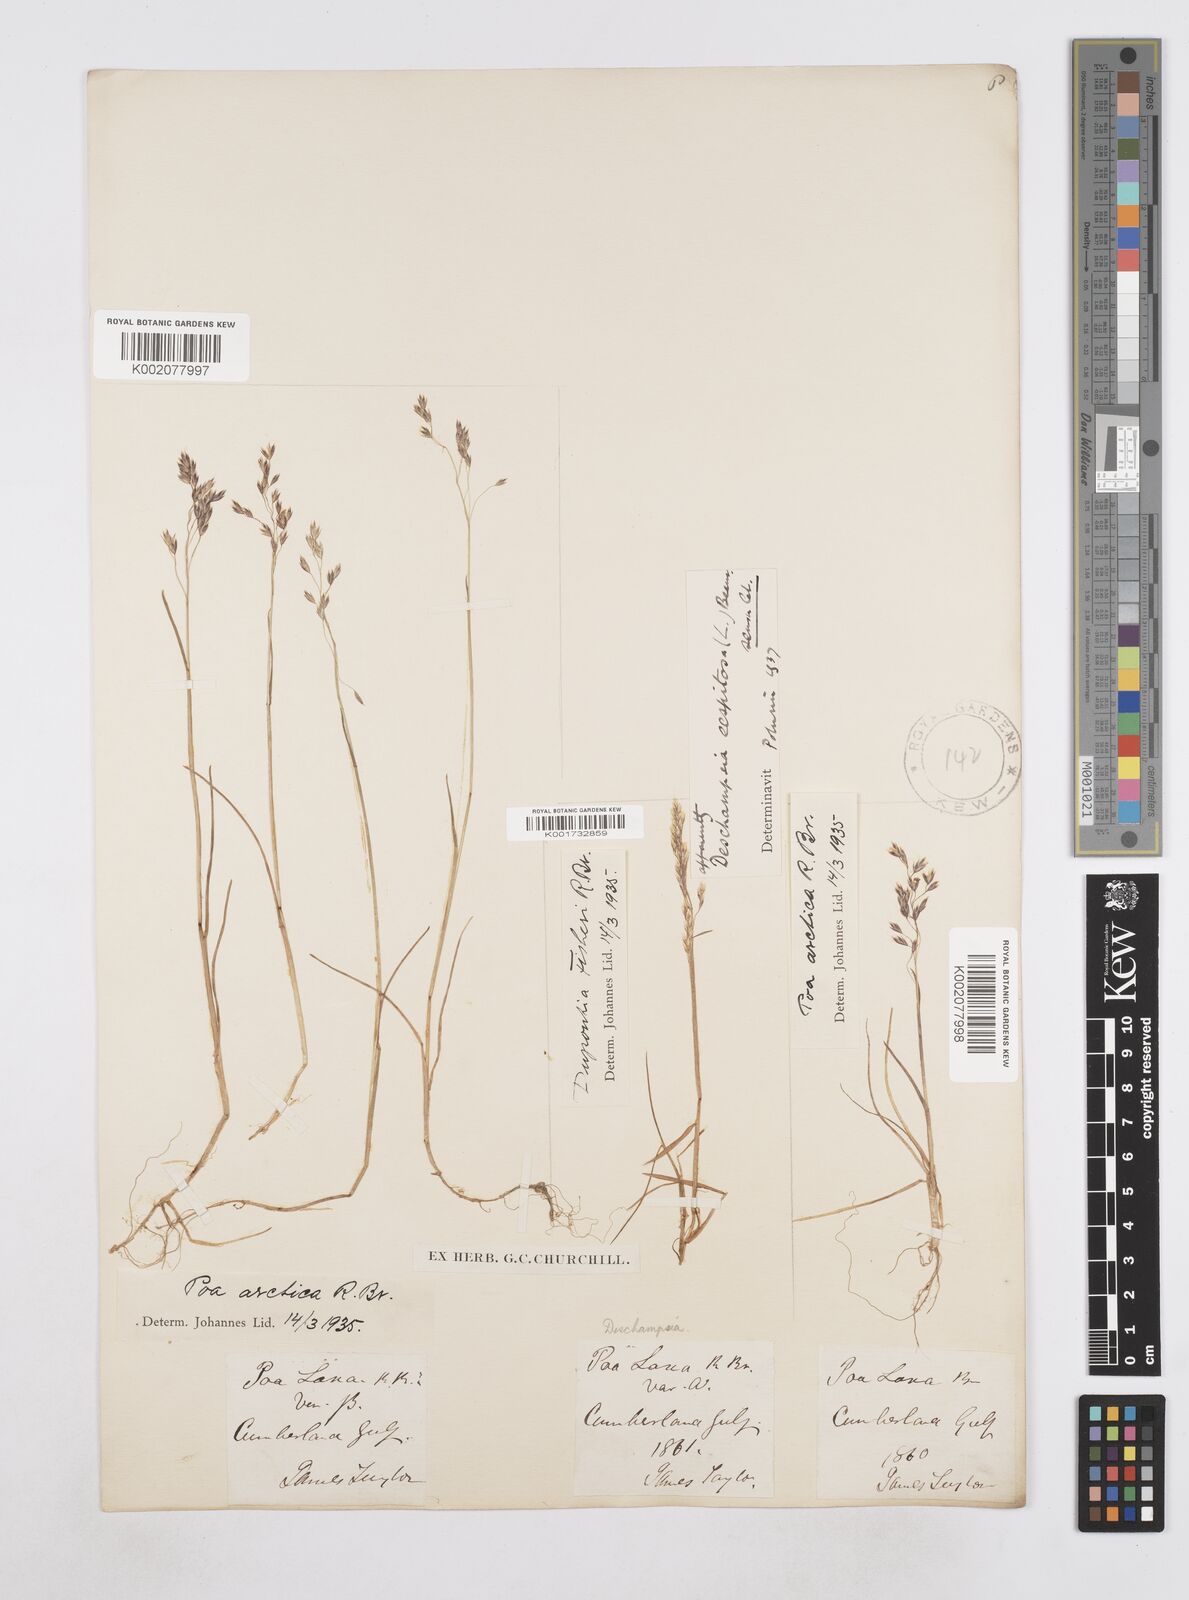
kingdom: Plantae
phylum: Tracheophyta
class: Liliopsida
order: Poales
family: Poaceae
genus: Poa
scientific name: Poa arctica
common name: Arctic bluegrass
